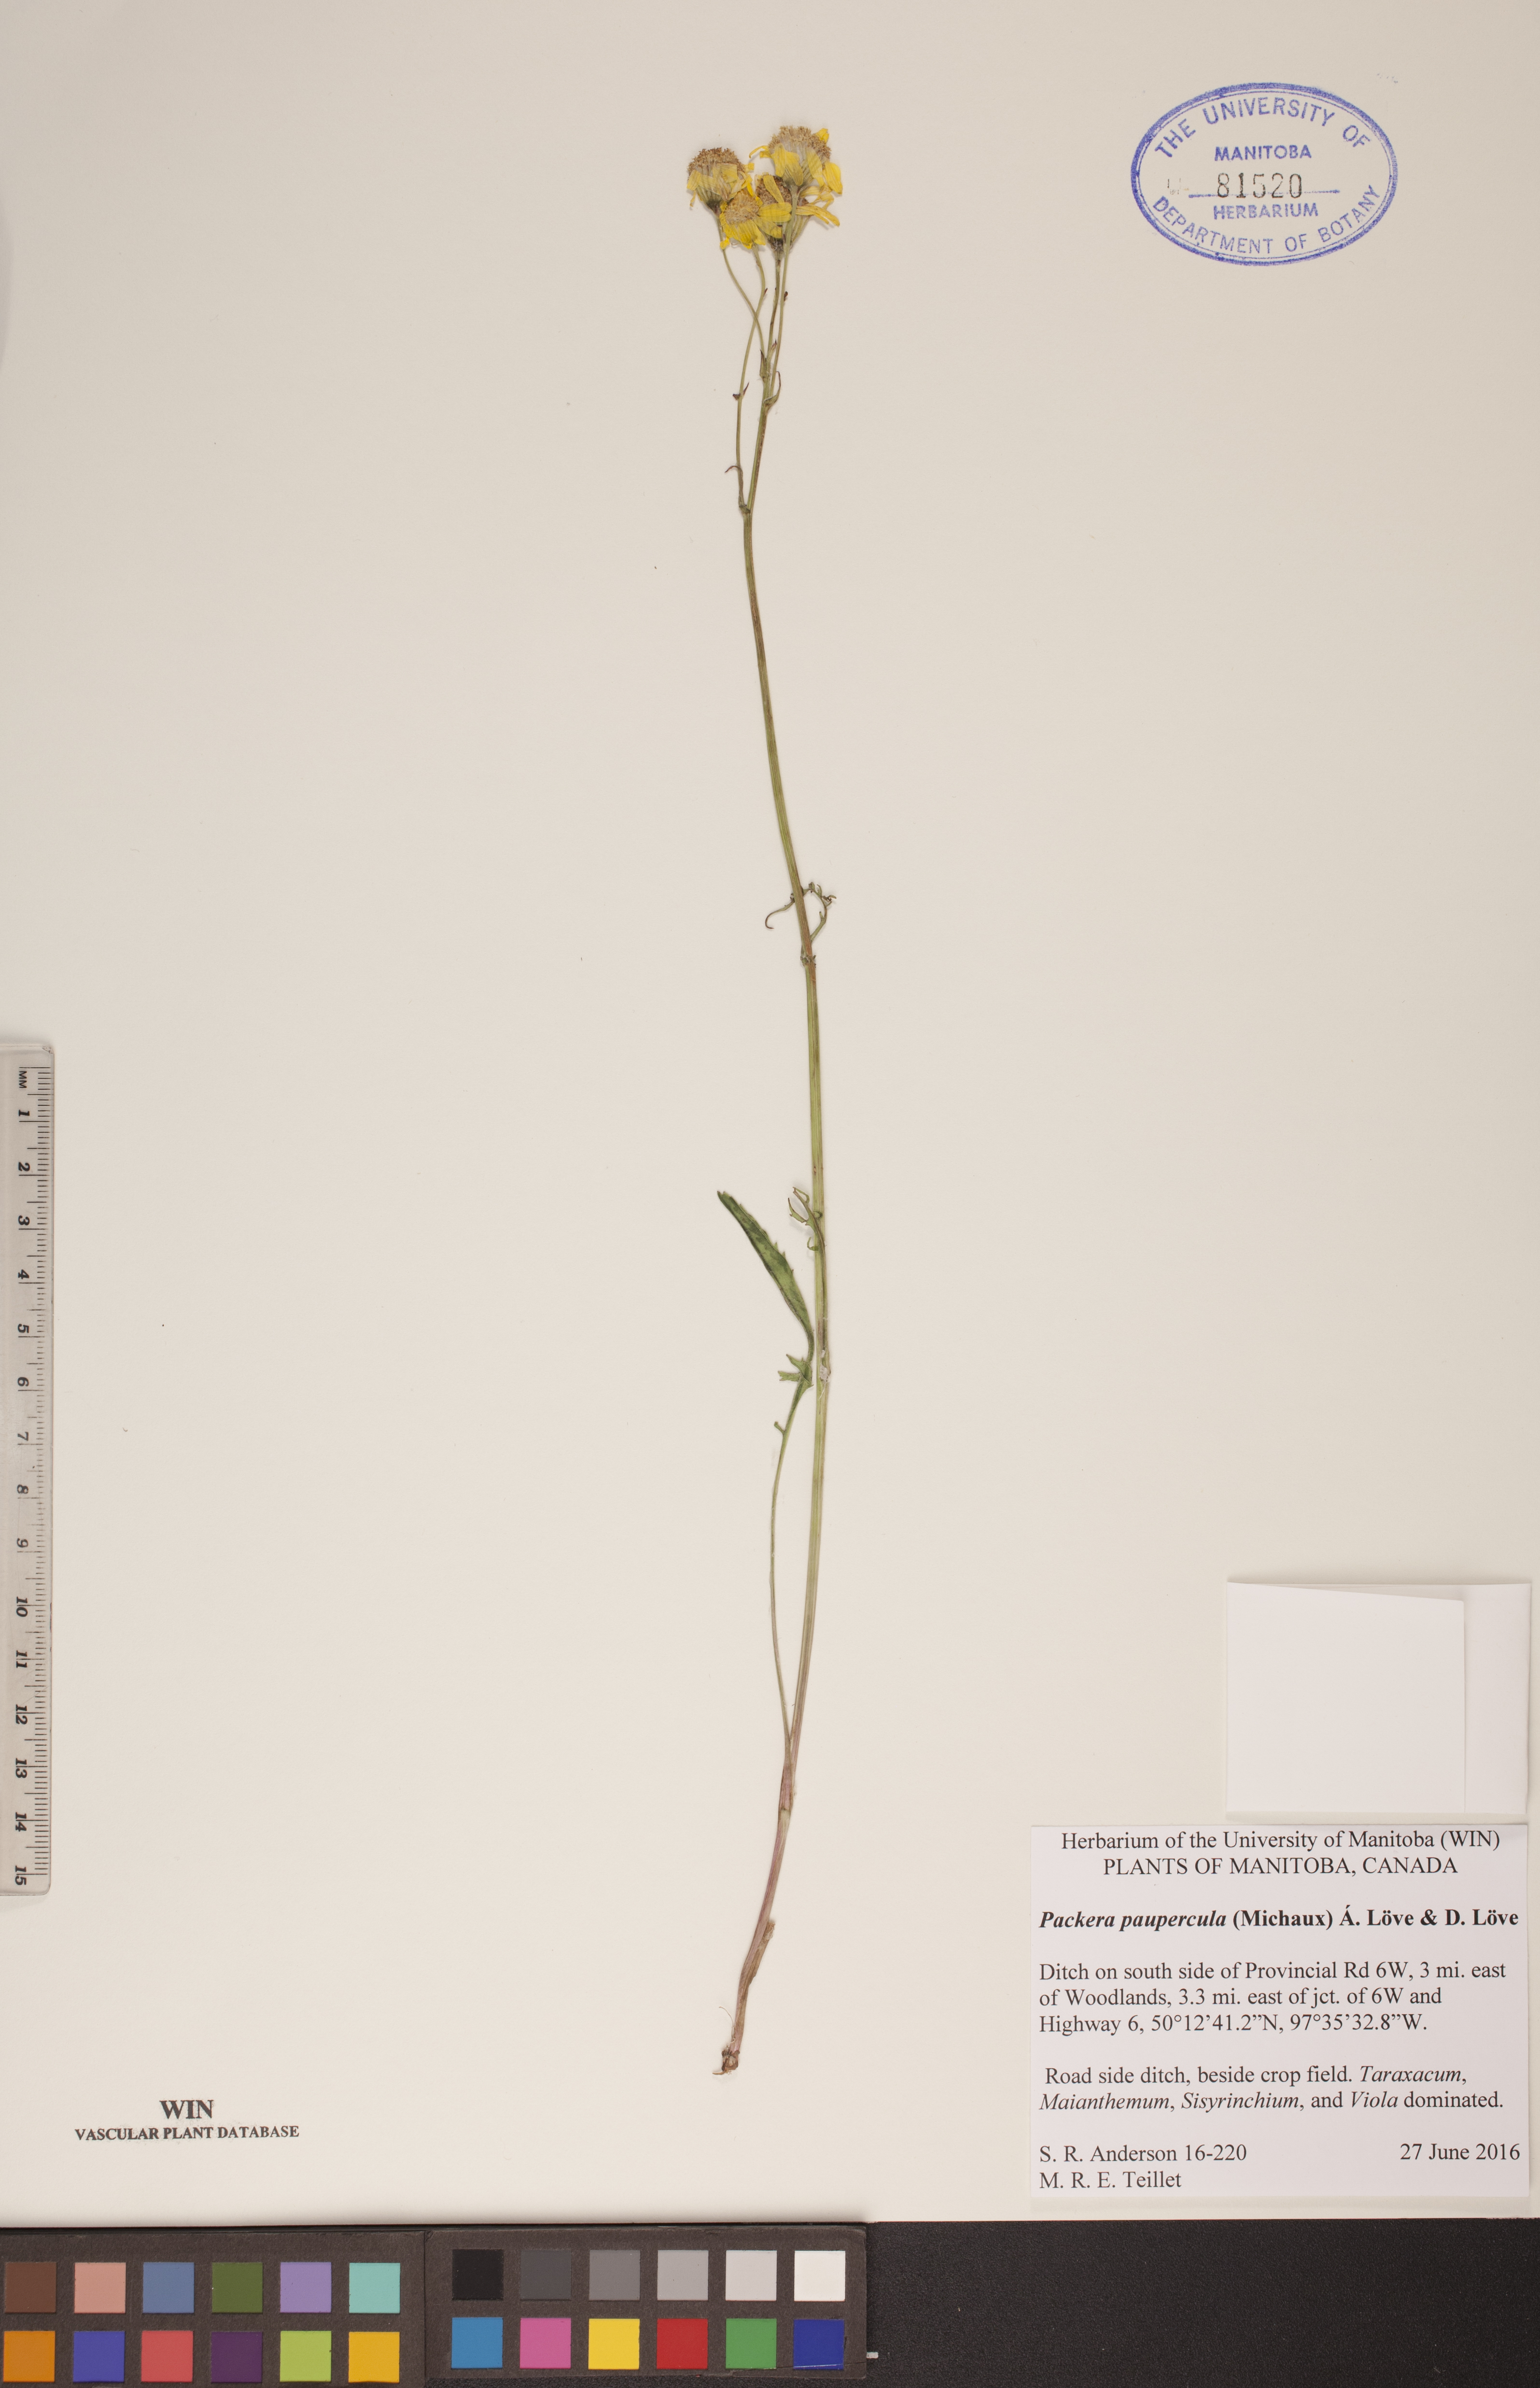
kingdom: Plantae
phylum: Tracheophyta
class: Magnoliopsida
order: Asterales
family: Asteraceae
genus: Packera
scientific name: Packera paupercula
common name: Balsam groundsel
